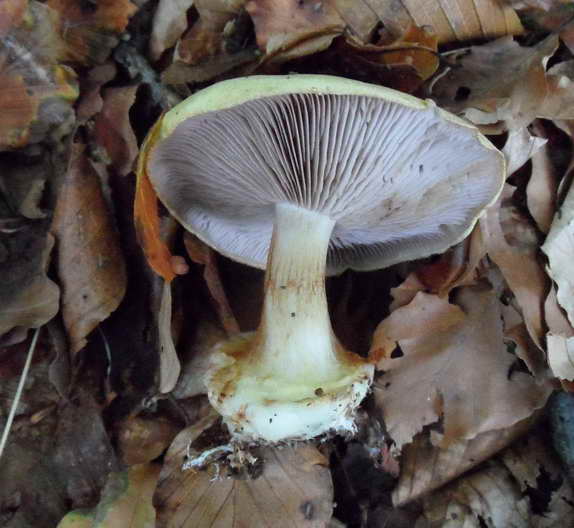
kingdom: Fungi
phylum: Basidiomycota
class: Agaricomycetes
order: Agaricales
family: Cortinariaceae
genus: Calonarius
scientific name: Calonarius callochrous
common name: lillabladet slørhat
